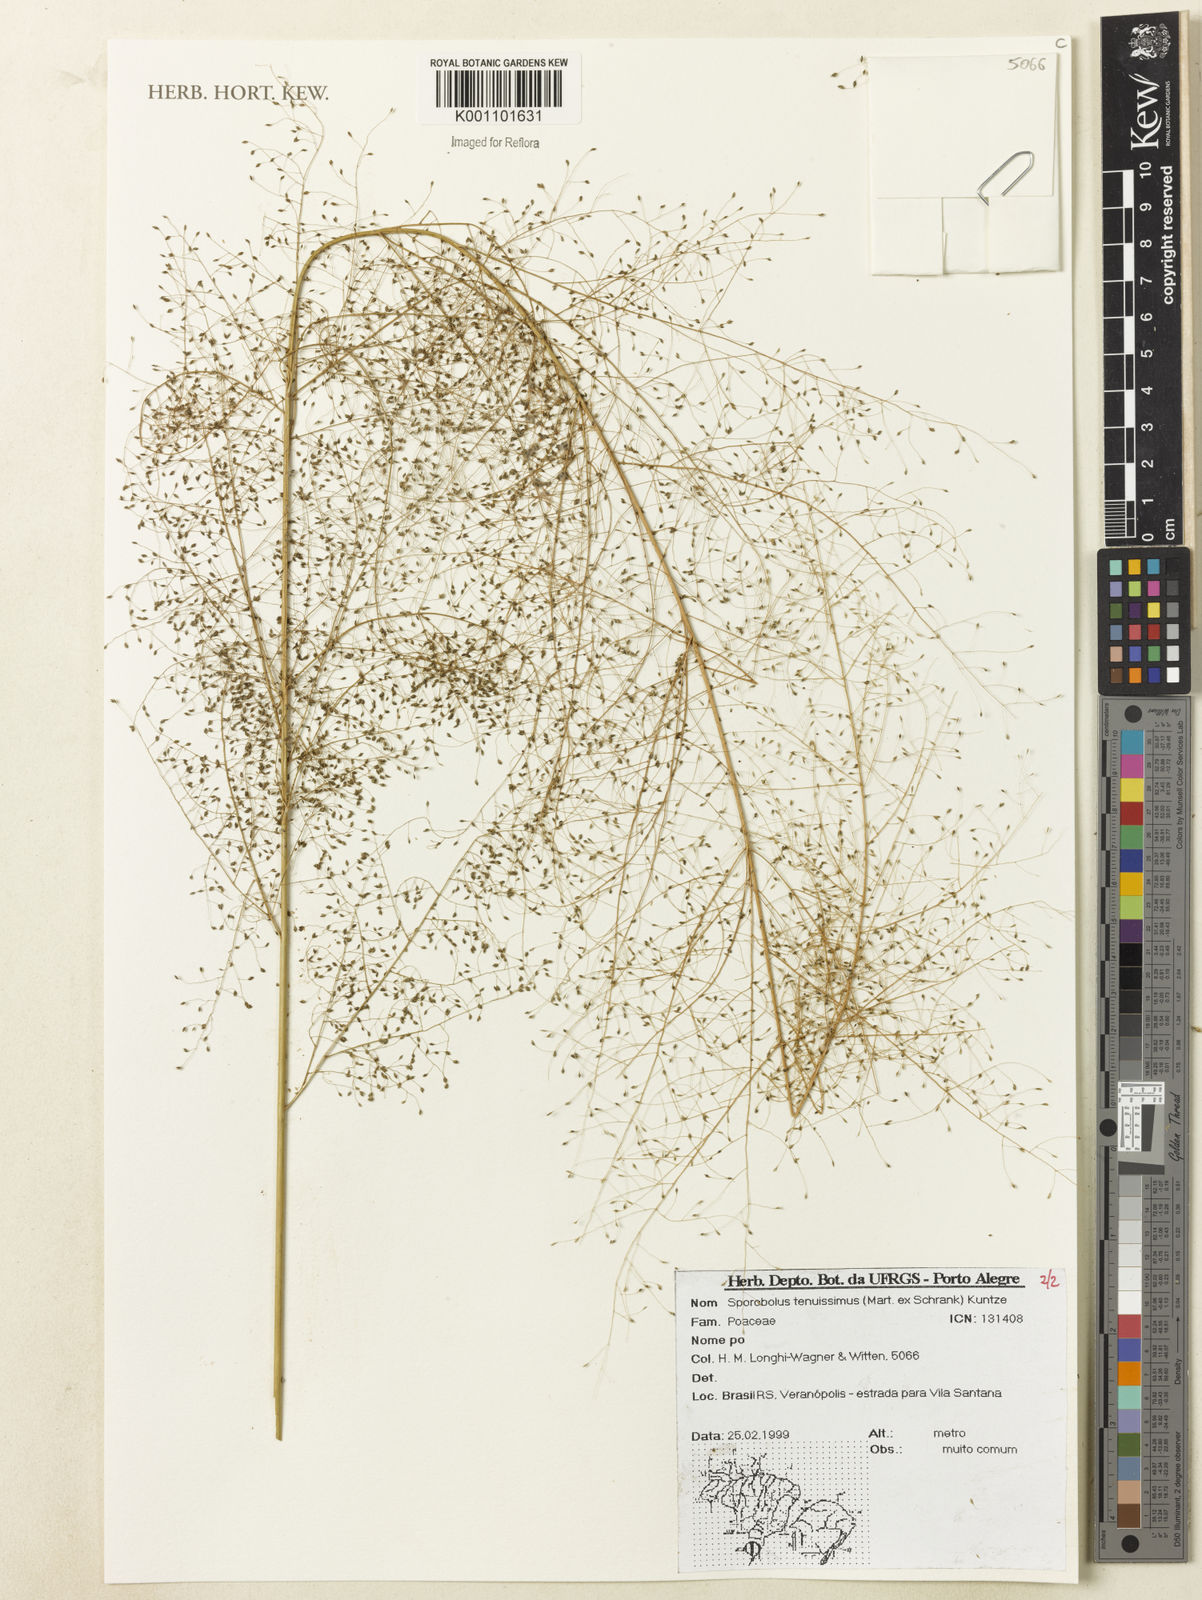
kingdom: Plantae
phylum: Tracheophyta
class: Liliopsida
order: Poales
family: Poaceae
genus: Sporobolus
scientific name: Sporobolus tenuissimus
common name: Tropical dropseed
